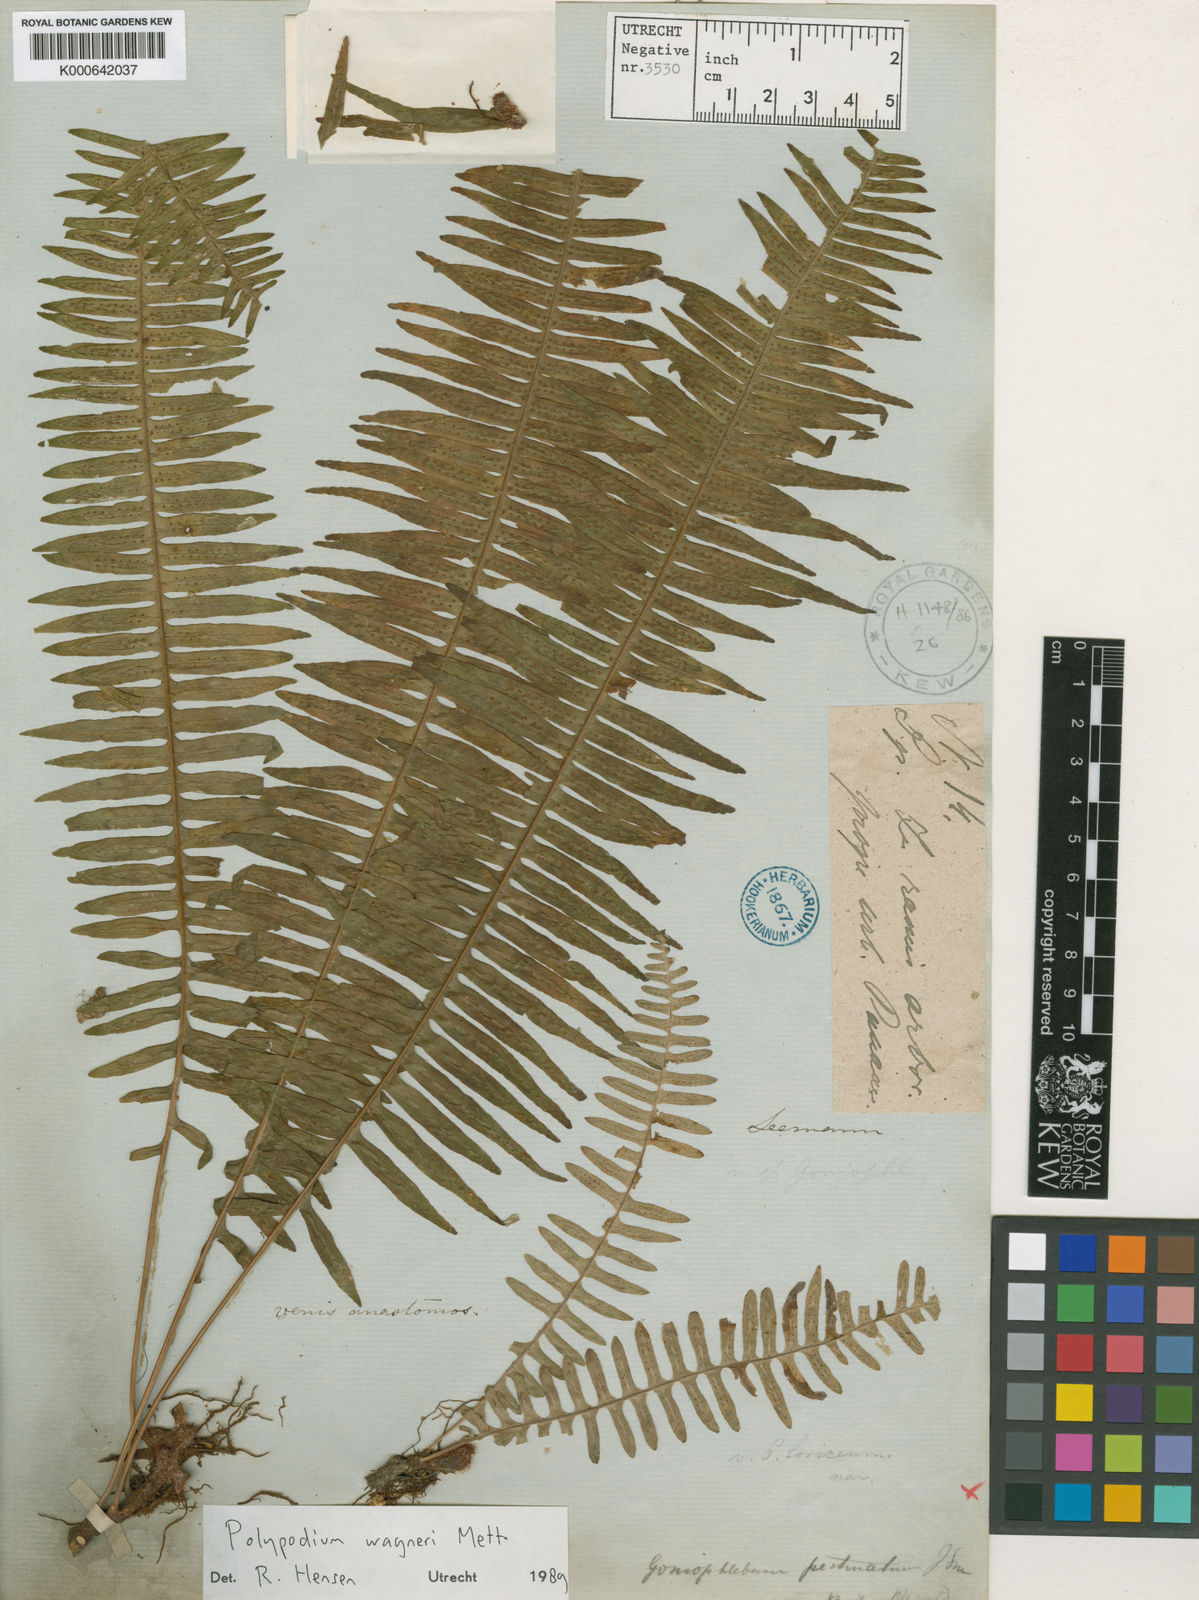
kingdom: Plantae
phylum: Tracheophyta
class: Polypodiopsida
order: Polypodiales
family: Polypodiaceae
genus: Serpocaulon
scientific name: Serpocaulon wagneri
